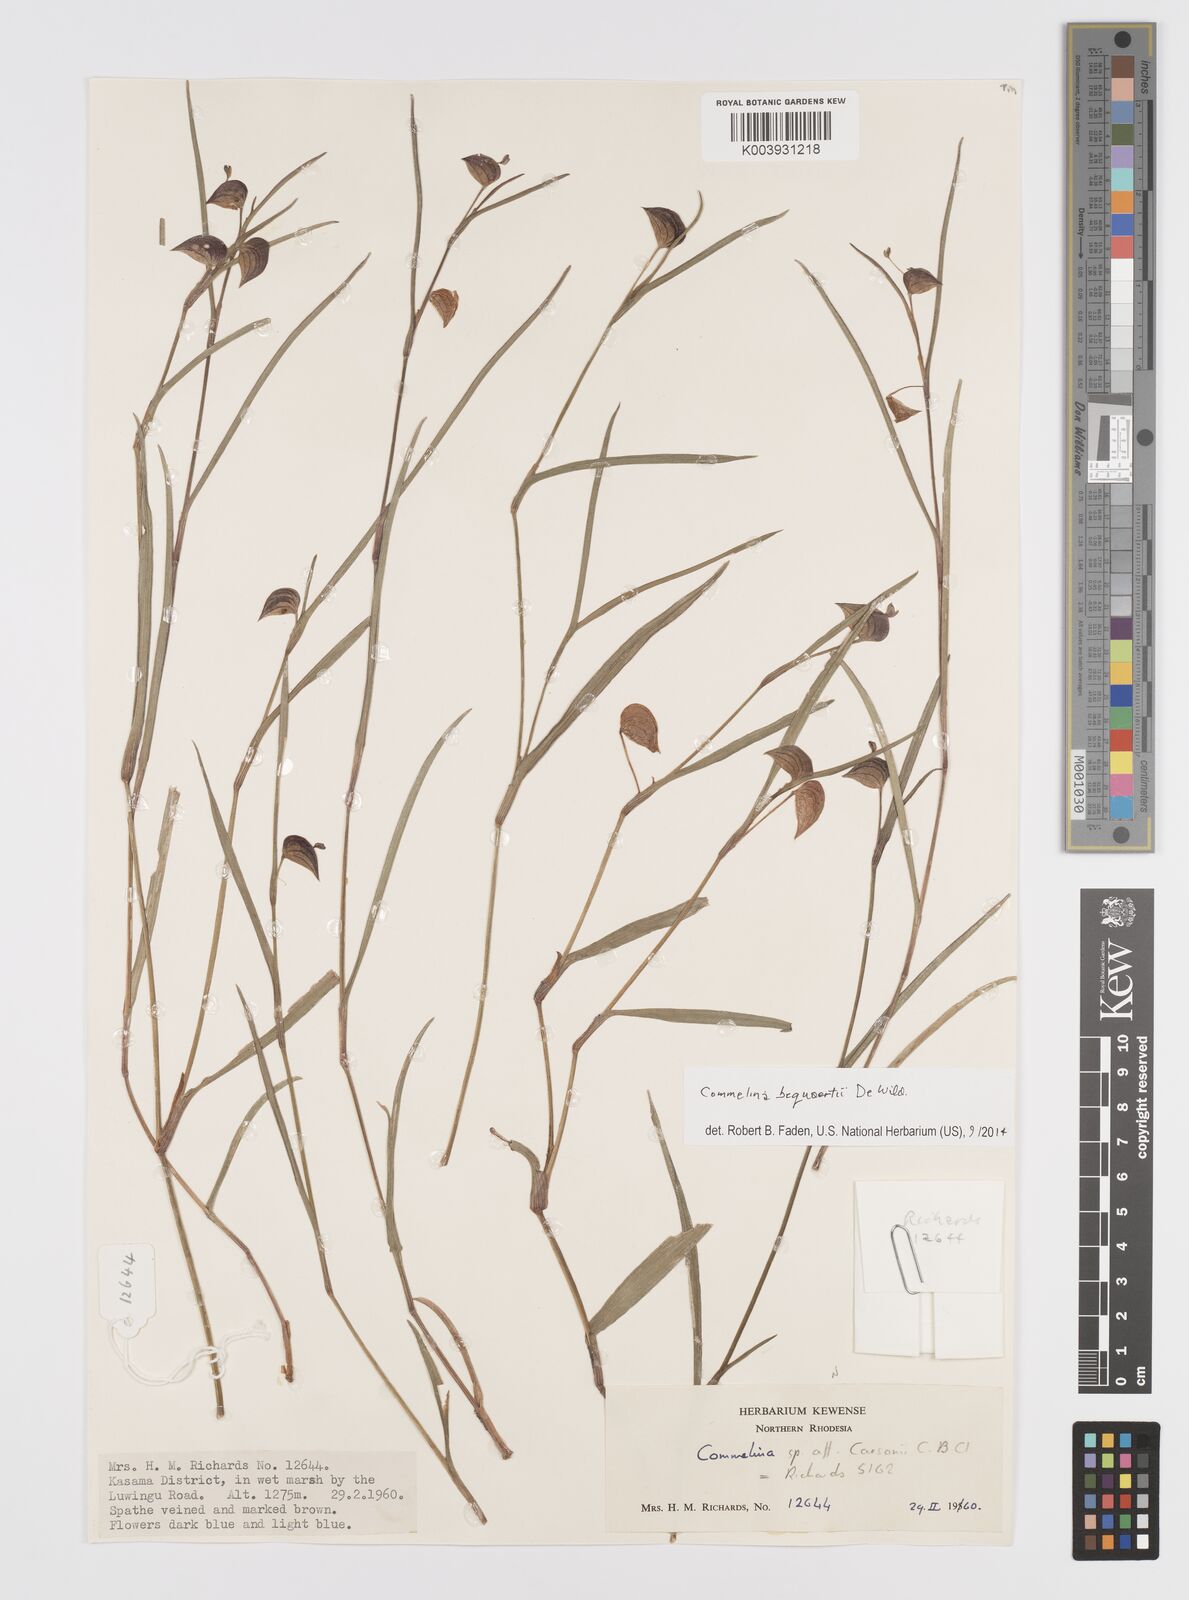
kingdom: Plantae
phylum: Tracheophyta
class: Liliopsida
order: Commelinales
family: Commelinaceae
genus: Commelina
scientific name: Commelina bequaertii
